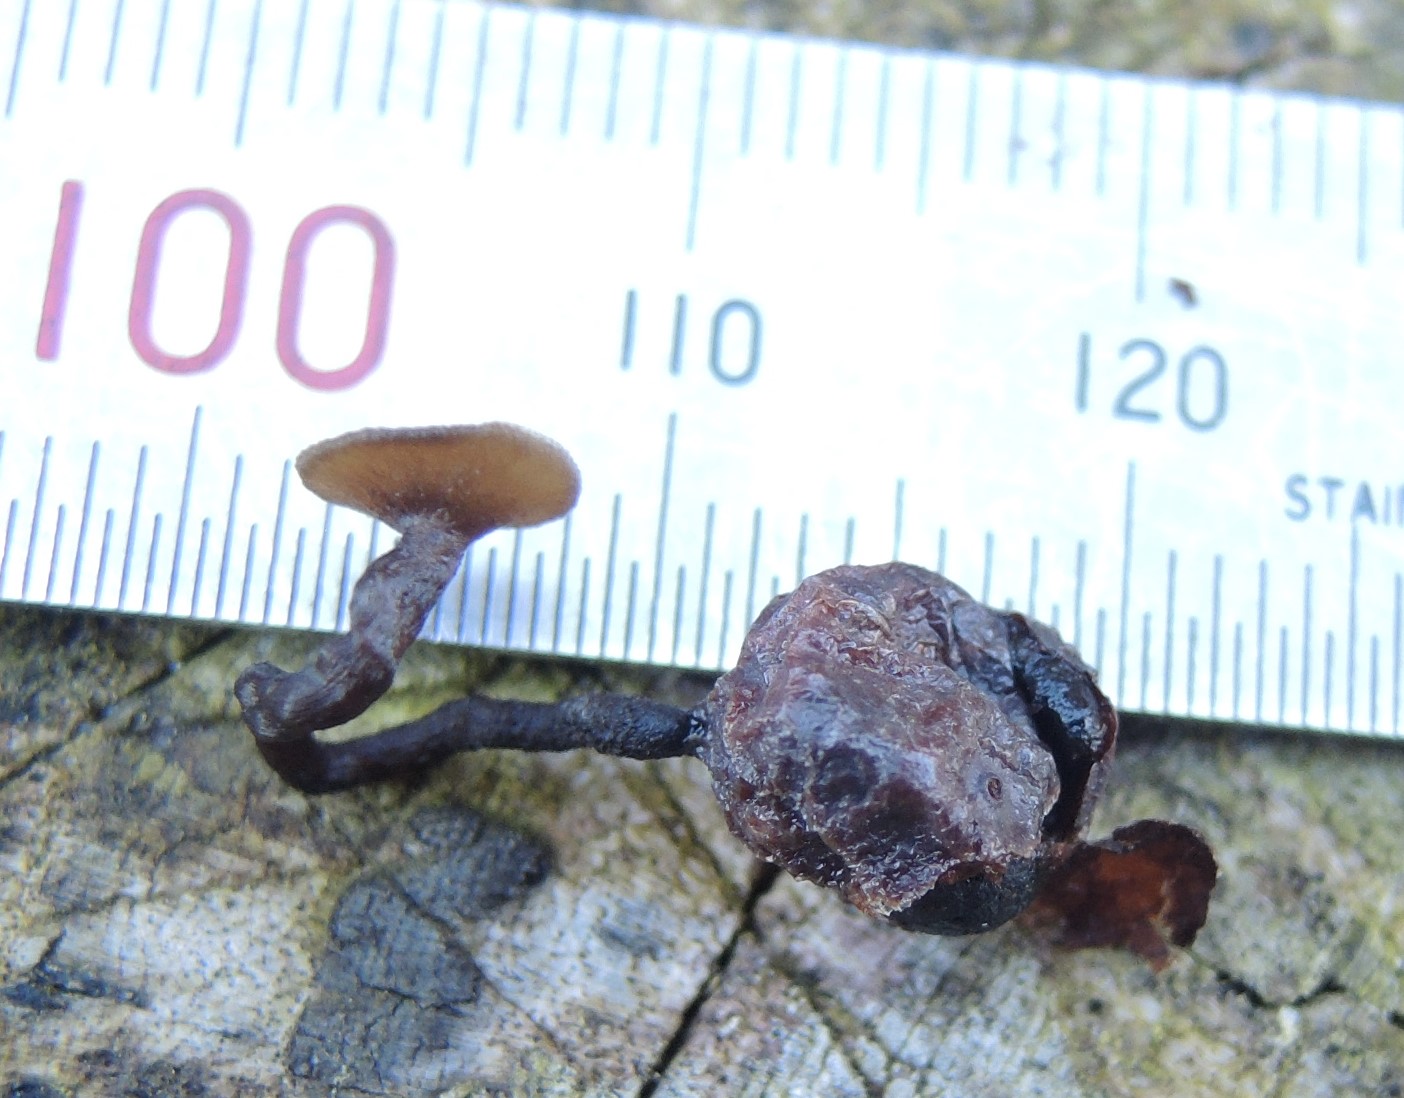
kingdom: Fungi
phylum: Ascomycota
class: Leotiomycetes
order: Helotiales
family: Sclerotiniaceae
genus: Monilinia
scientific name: Monilinia oxycocci
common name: tranebær-knoldskive
